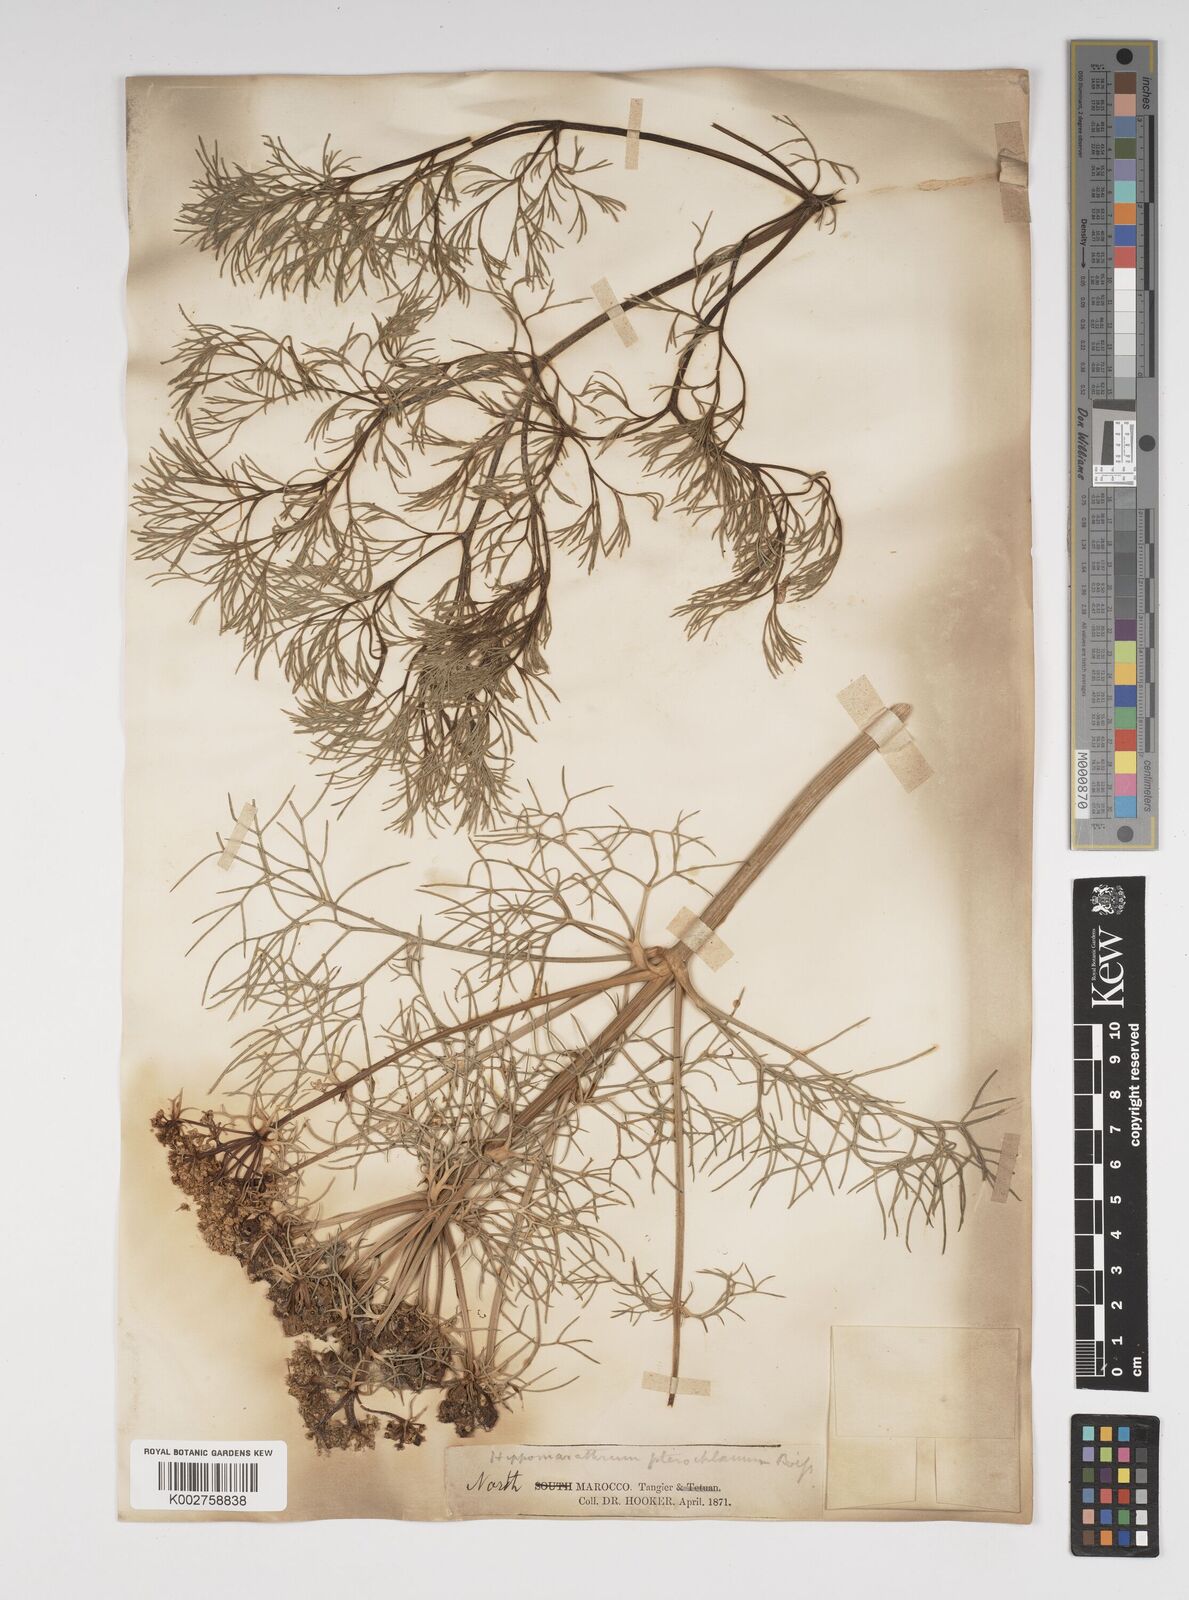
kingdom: Plantae
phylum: Tracheophyta
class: Magnoliopsida
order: Apiales
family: Apiaceae
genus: Cachrys
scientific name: Cachrys sicula
